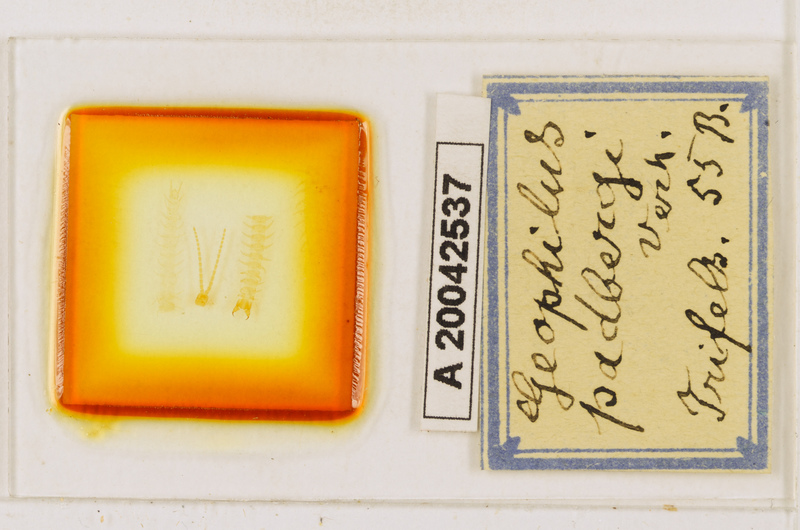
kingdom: Animalia
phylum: Arthropoda
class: Chilopoda
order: Geophilomorpha
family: Geophilidae
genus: Geophilus
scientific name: Geophilus studeri
